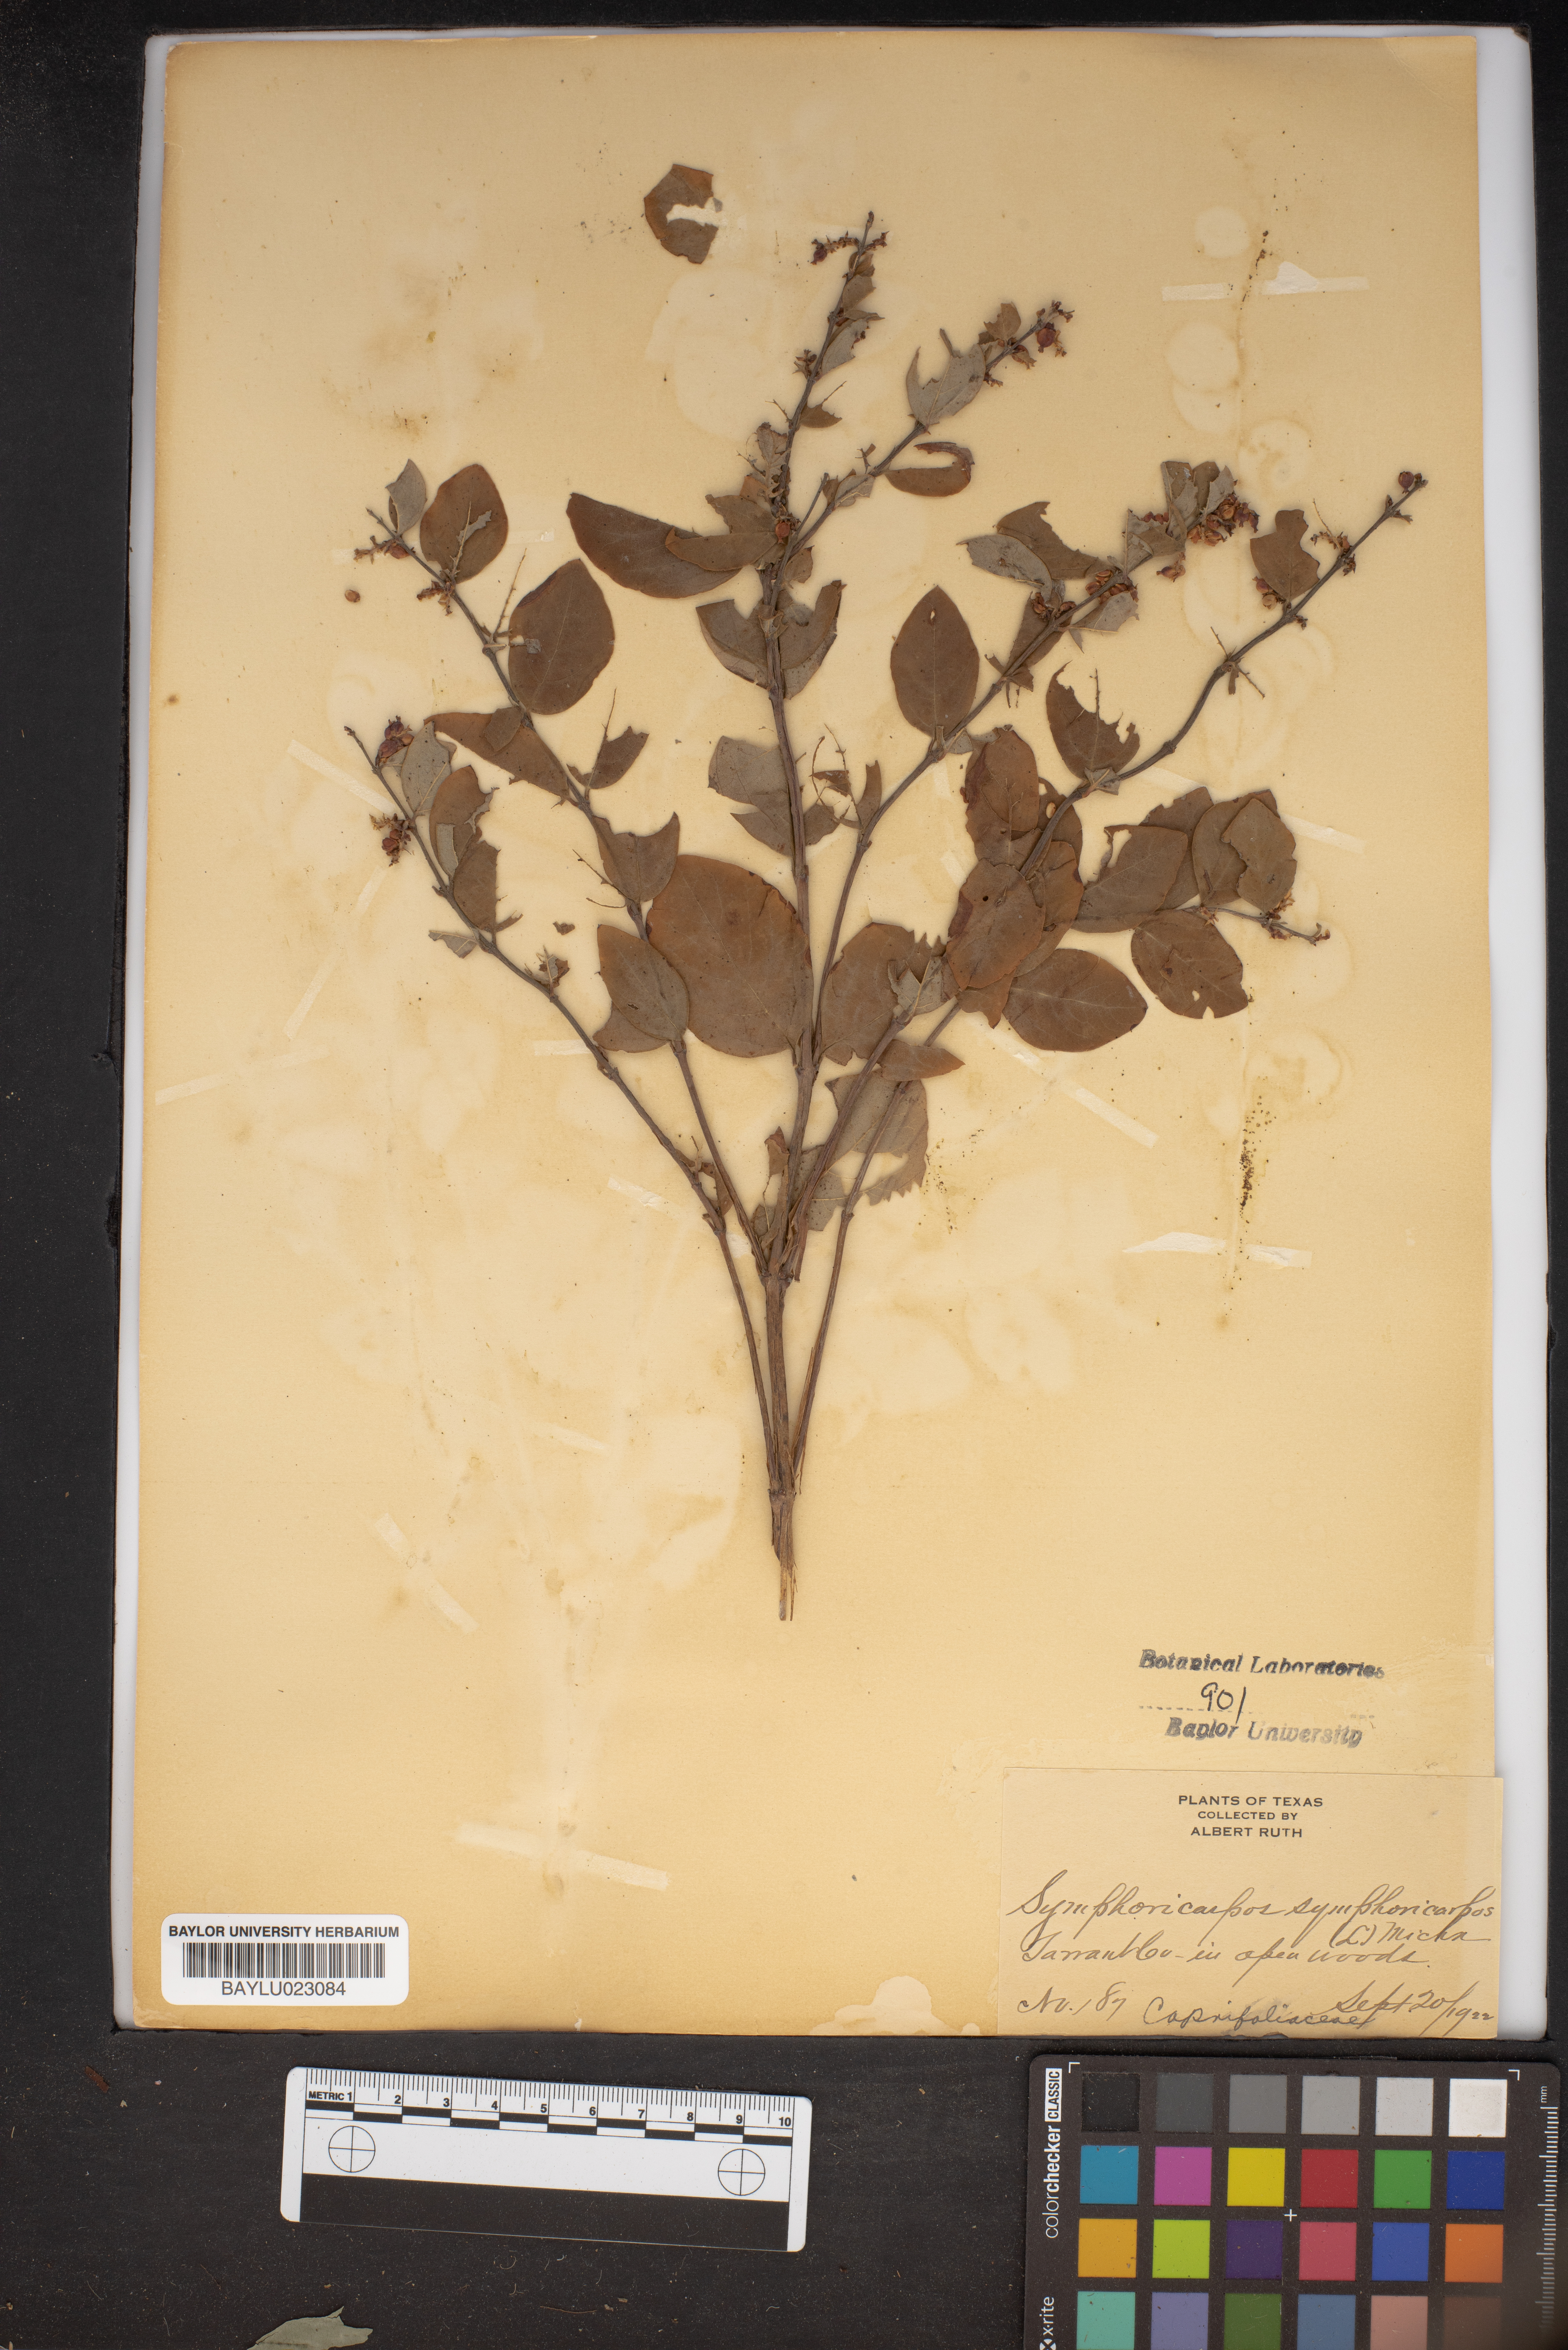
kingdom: Plantae
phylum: Tracheophyta
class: Magnoliopsida
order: Dipsacales
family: Caprifoliaceae
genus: Symphoricarpos
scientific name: Symphoricarpos orbiculatus
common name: Coralberry
